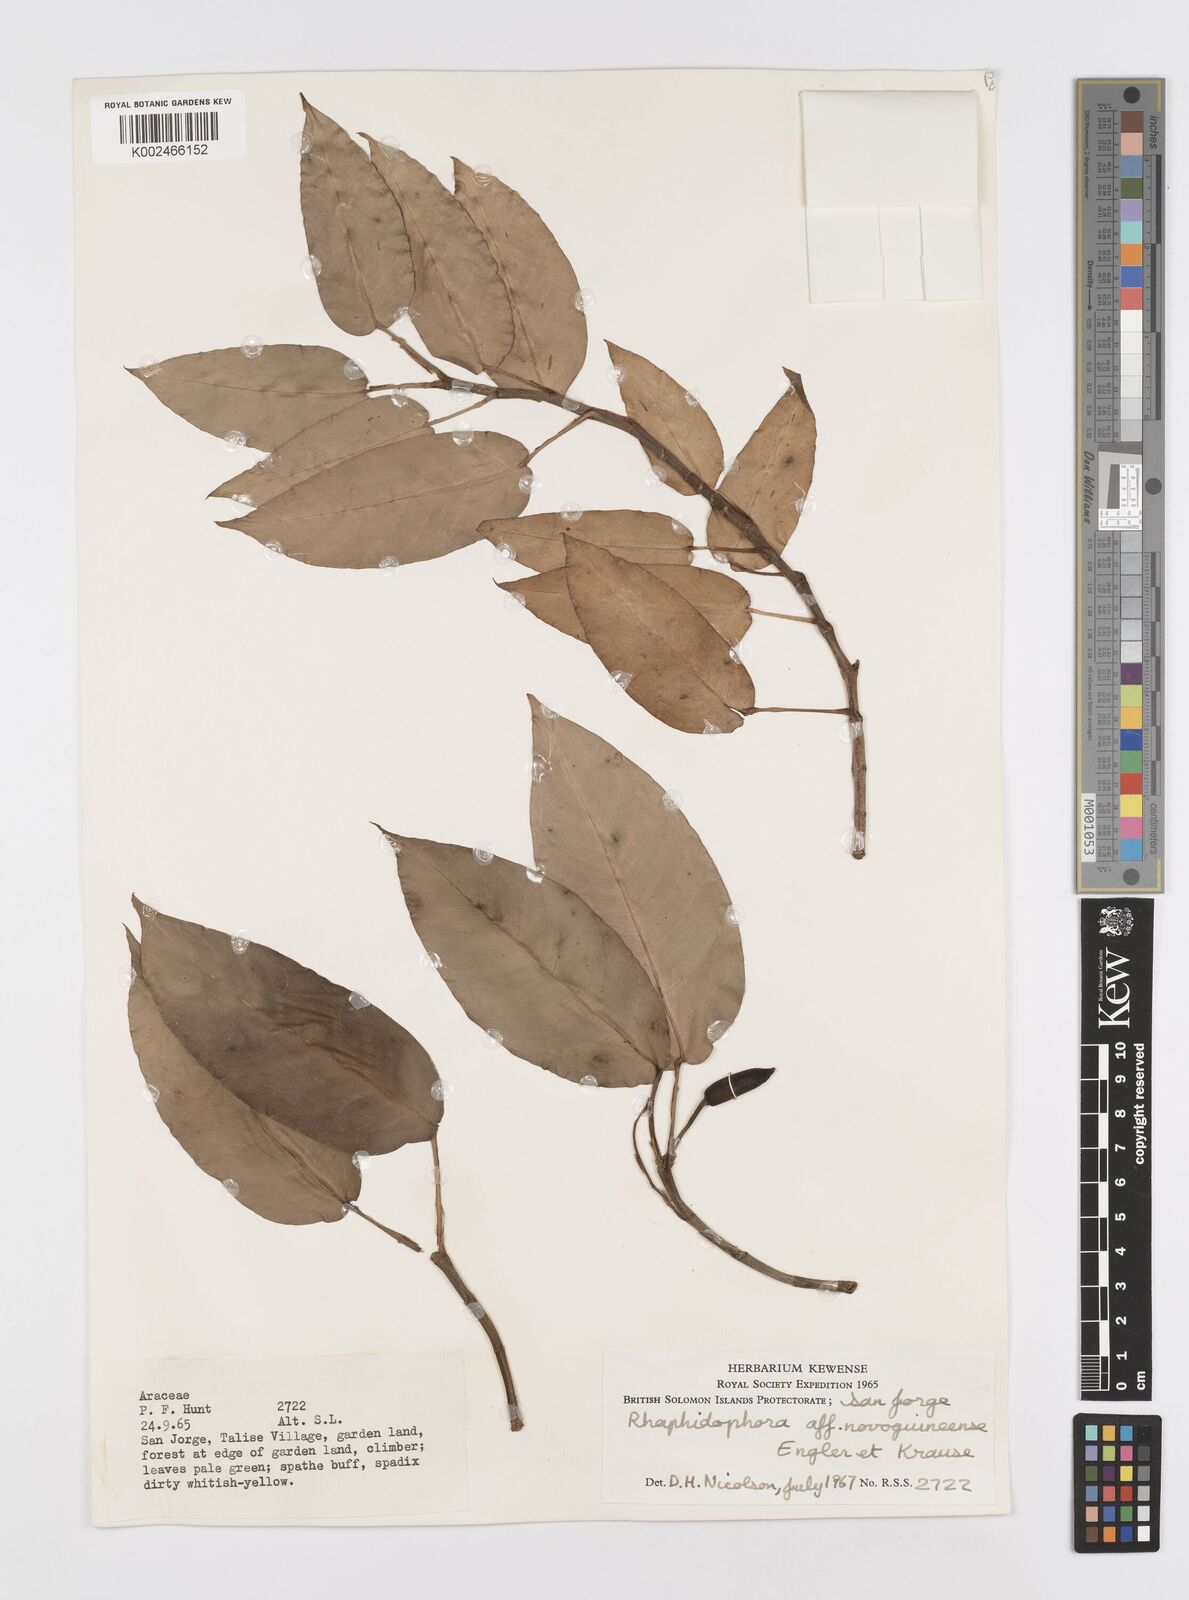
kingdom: Plantae
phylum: Tracheophyta
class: Liliopsida
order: Alismatales
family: Araceae
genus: Rhaphidophora
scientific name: Rhaphidophora mima
